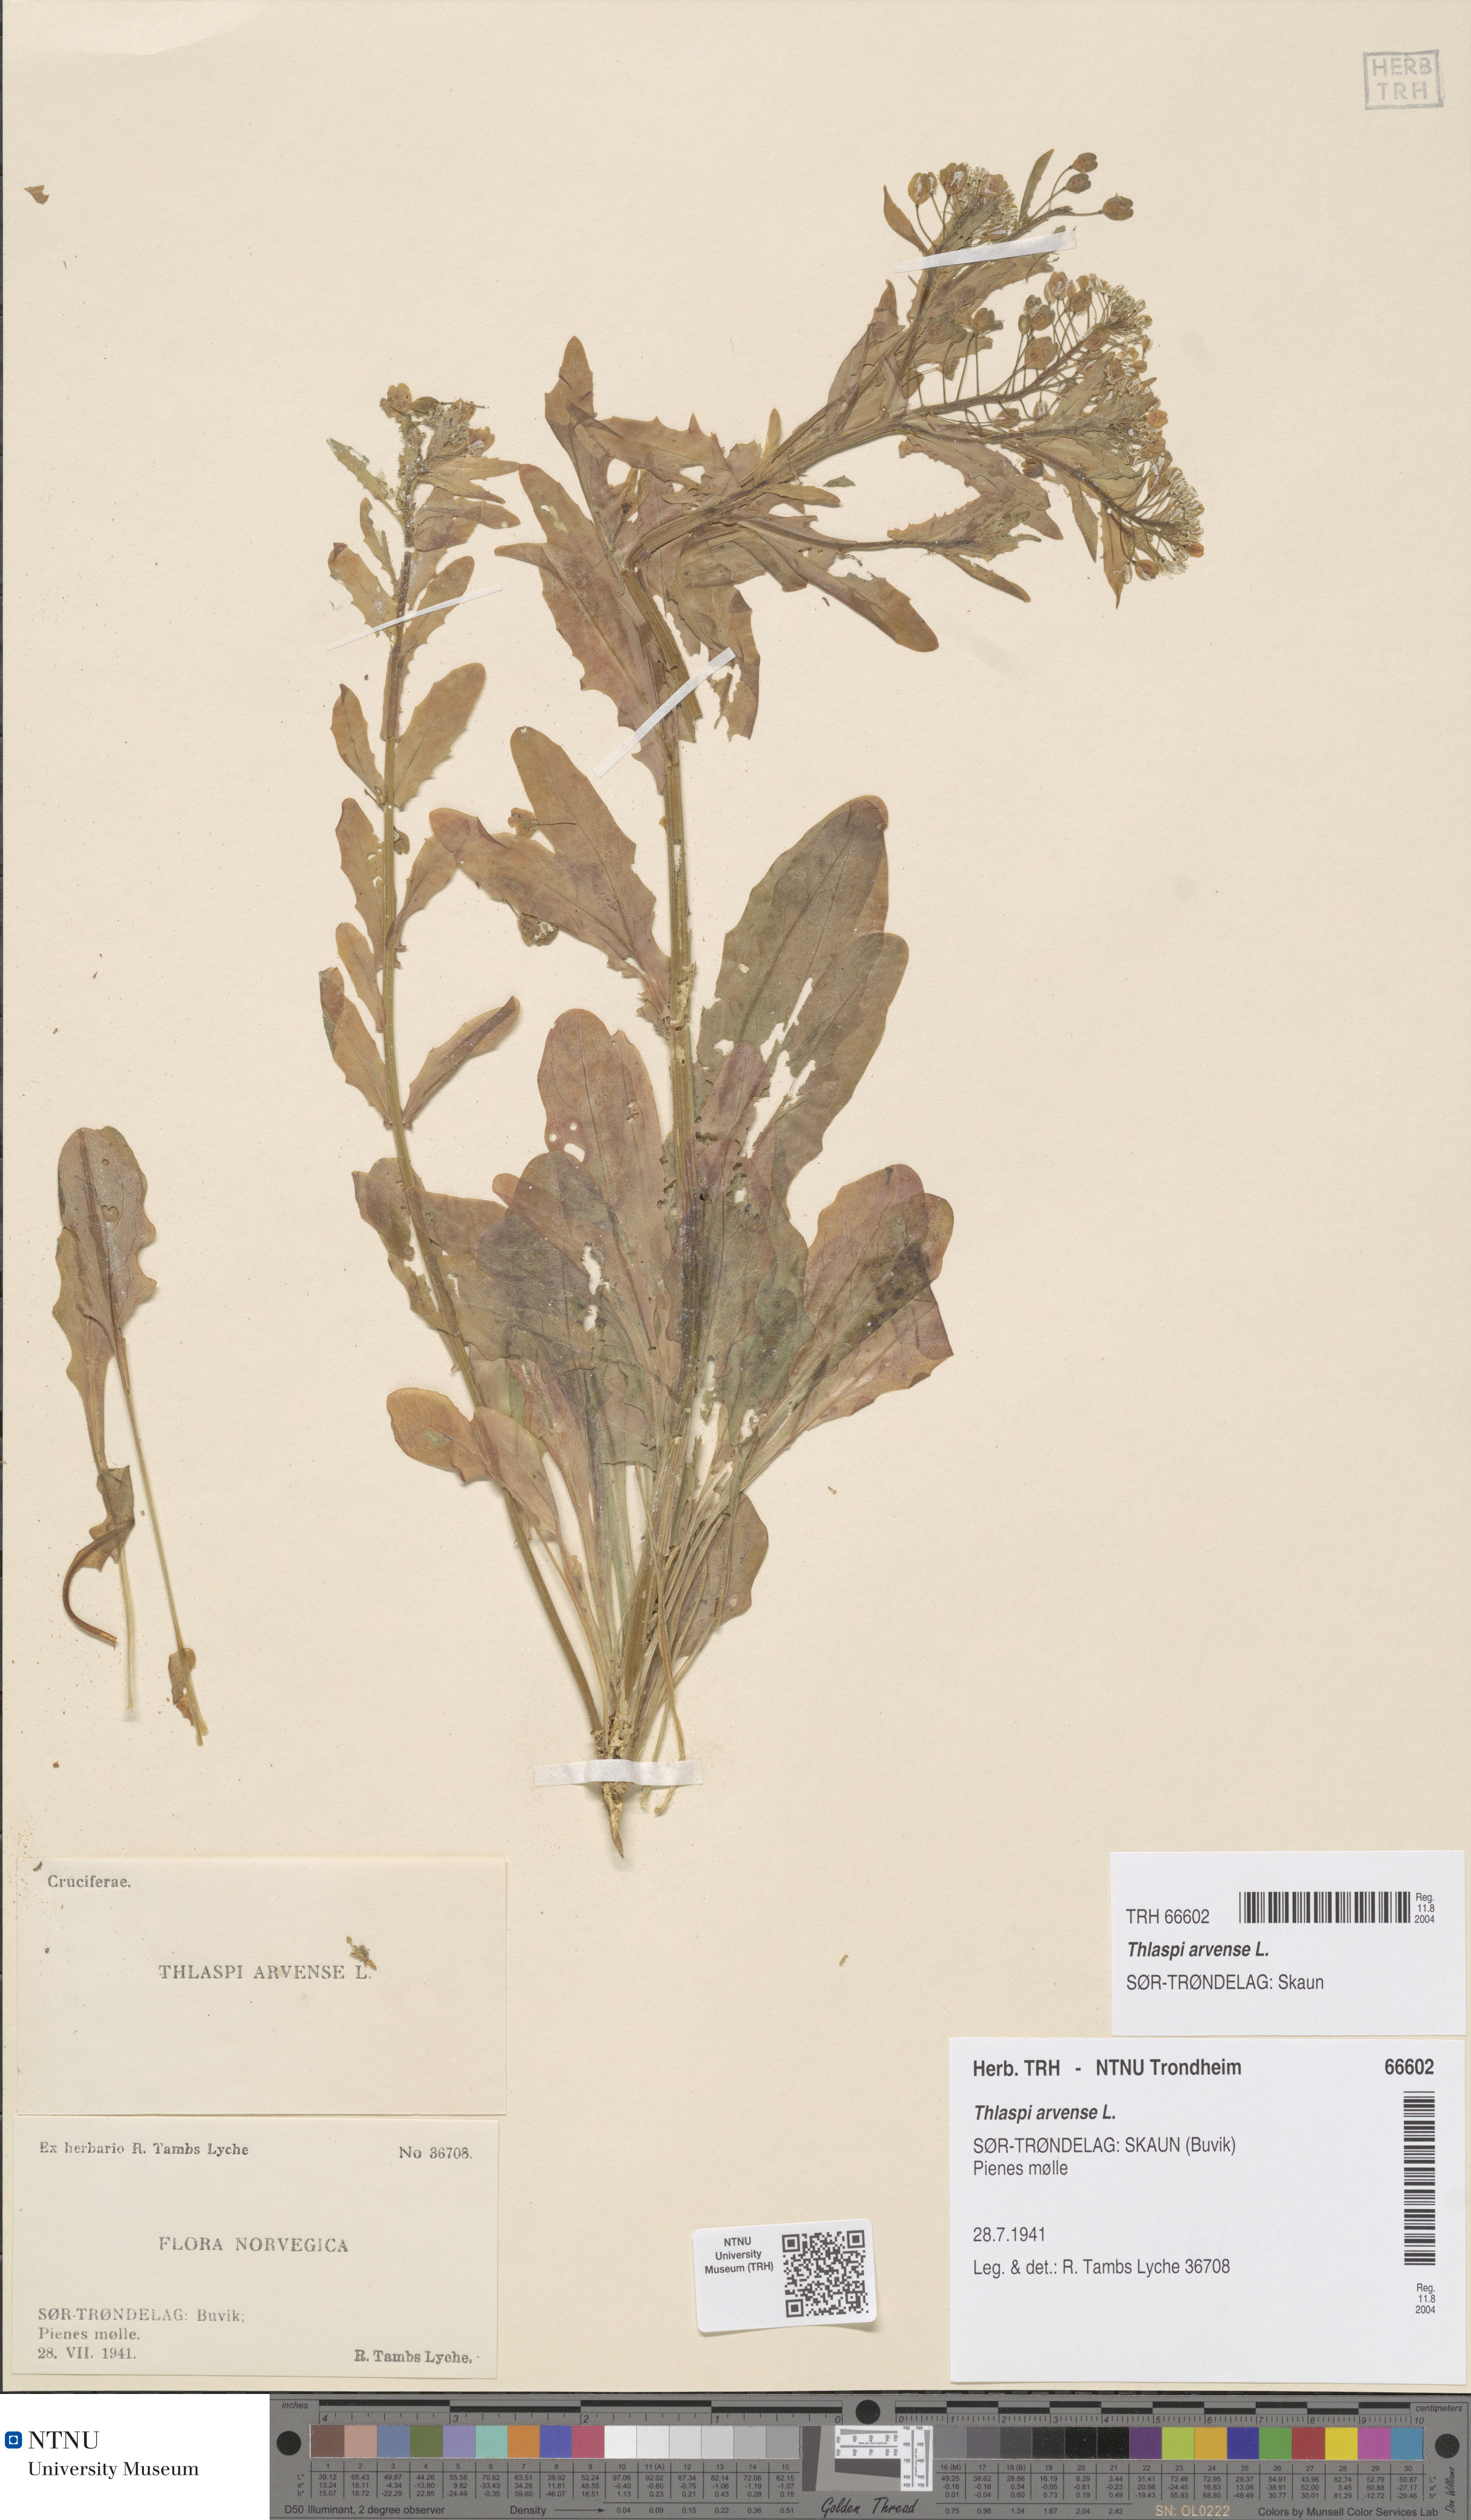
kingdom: Plantae
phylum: Tracheophyta
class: Magnoliopsida
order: Brassicales
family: Brassicaceae
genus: Thlaspi
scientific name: Thlaspi arvense
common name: Field pennycress
